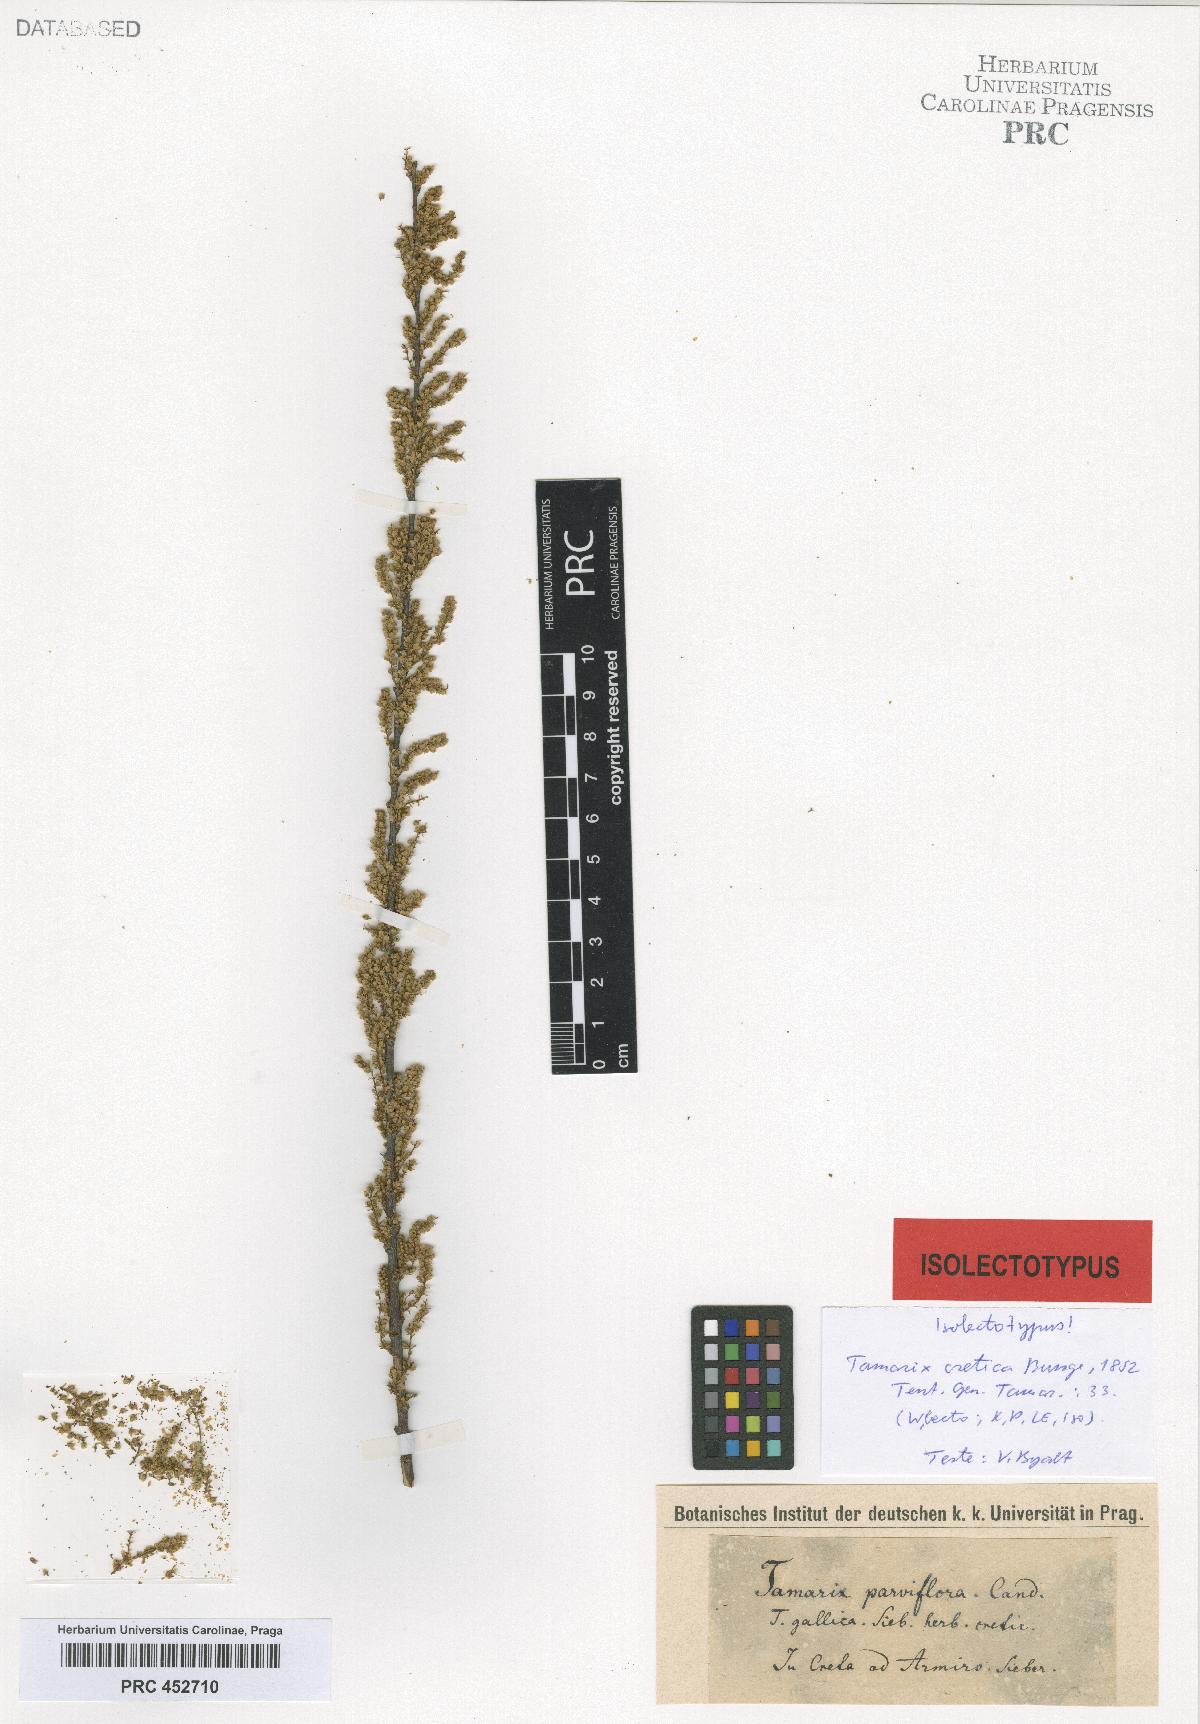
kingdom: Plantae
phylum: Tracheophyta
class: Magnoliopsida
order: Caryophyllales
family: Tamaricaceae
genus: Tamarix
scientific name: Tamarix parviflora
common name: Smallflower tamarisk
